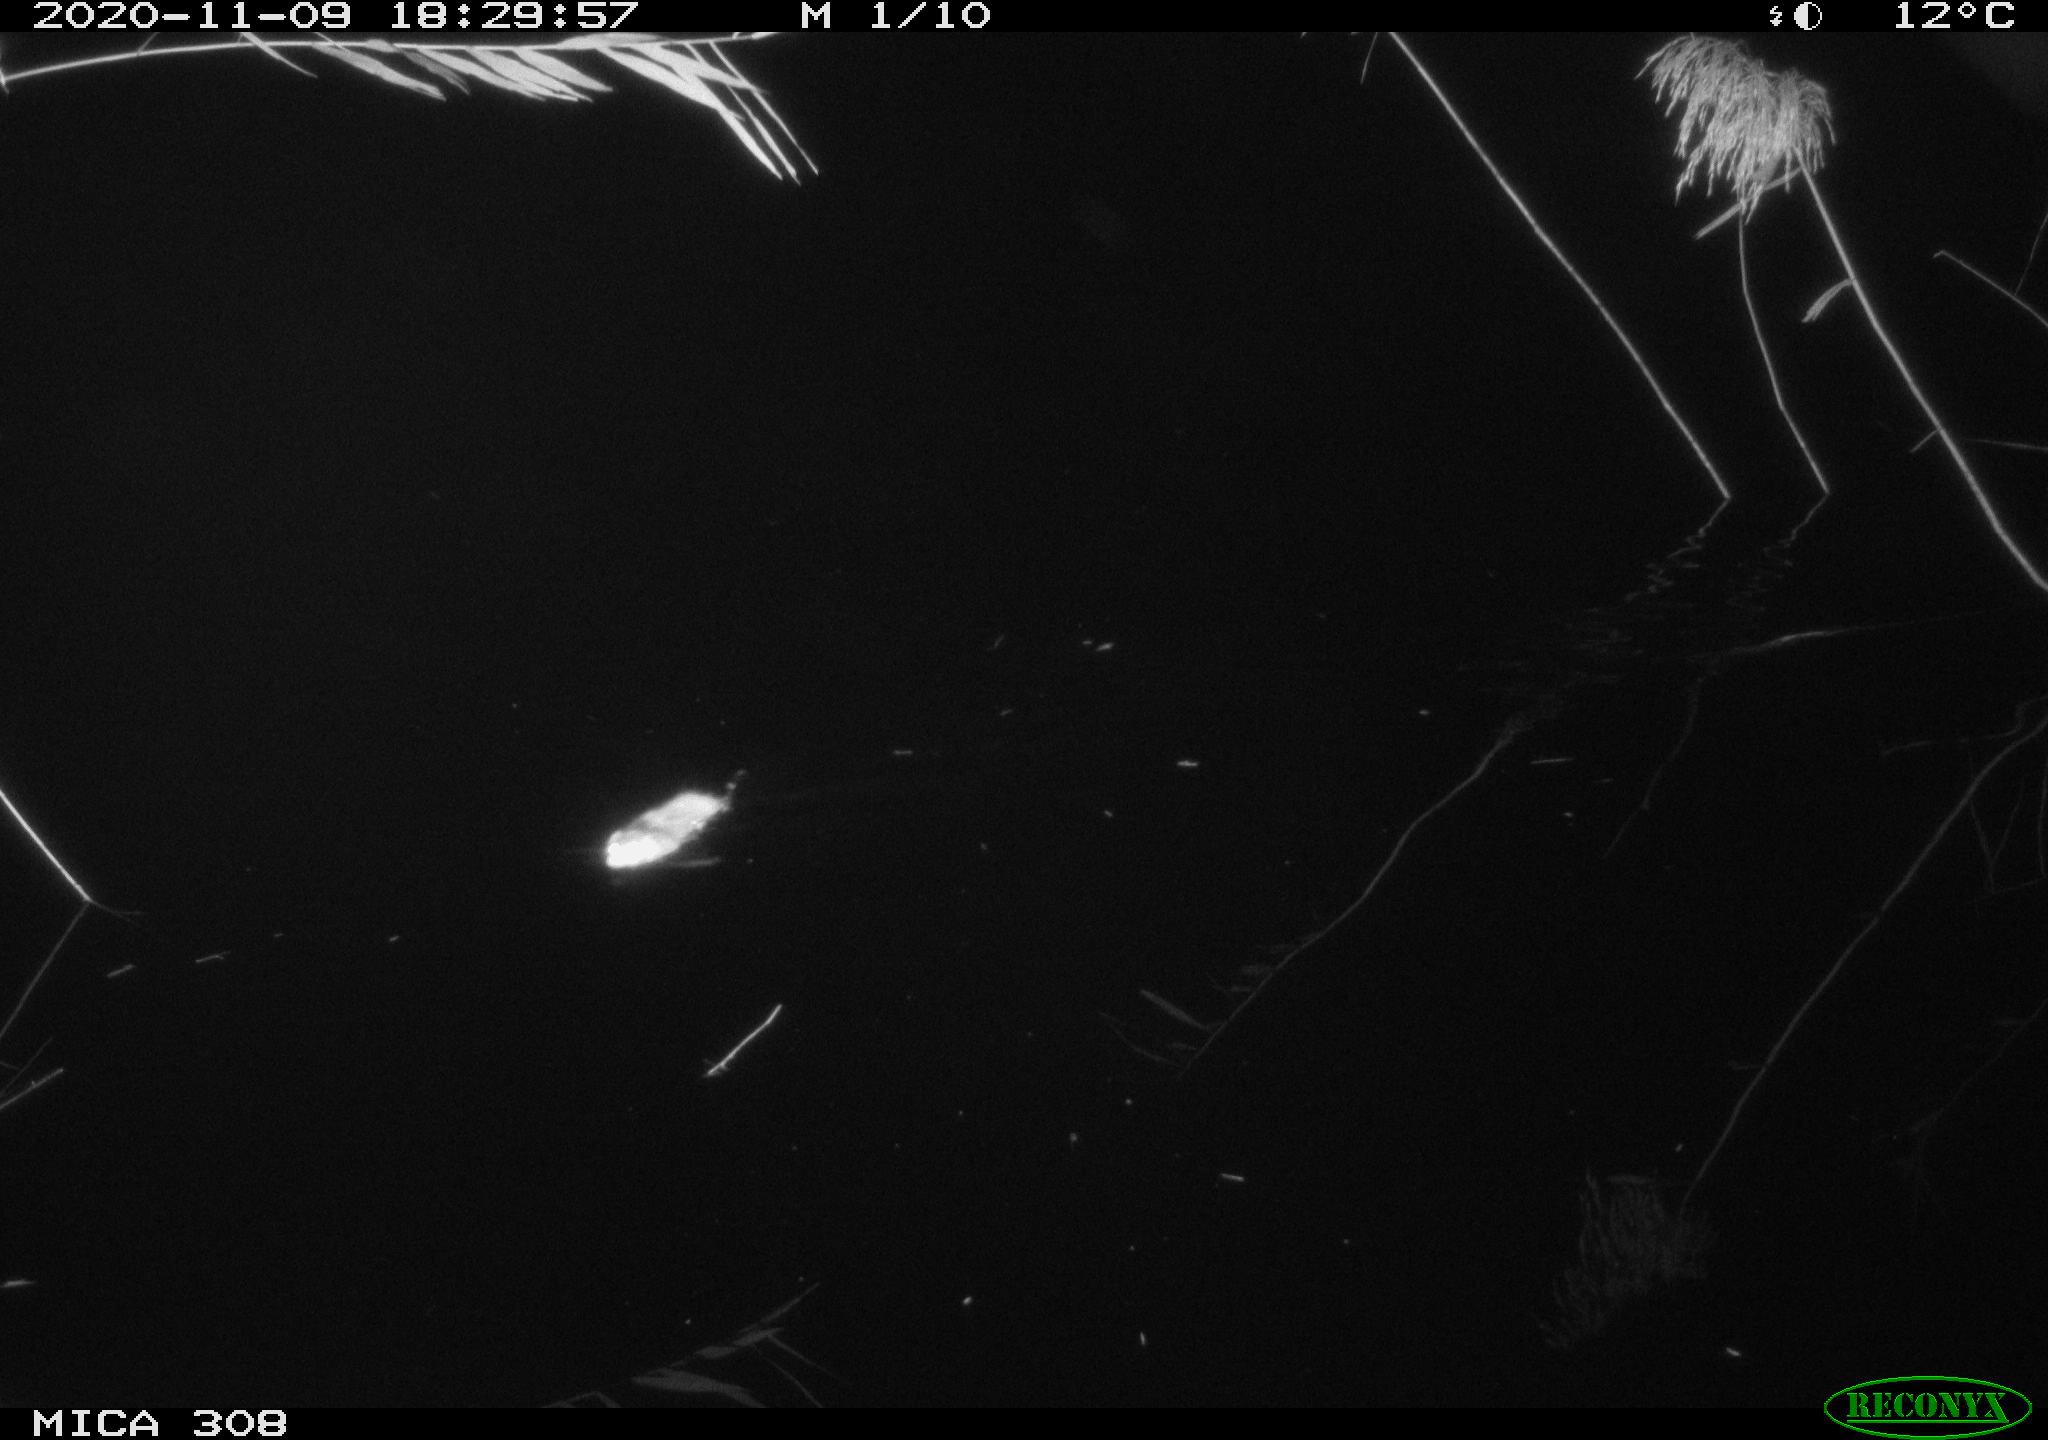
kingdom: Animalia
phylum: Chordata
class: Mammalia
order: Rodentia
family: Cricetidae
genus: Ondatra
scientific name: Ondatra zibethicus
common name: Muskrat
